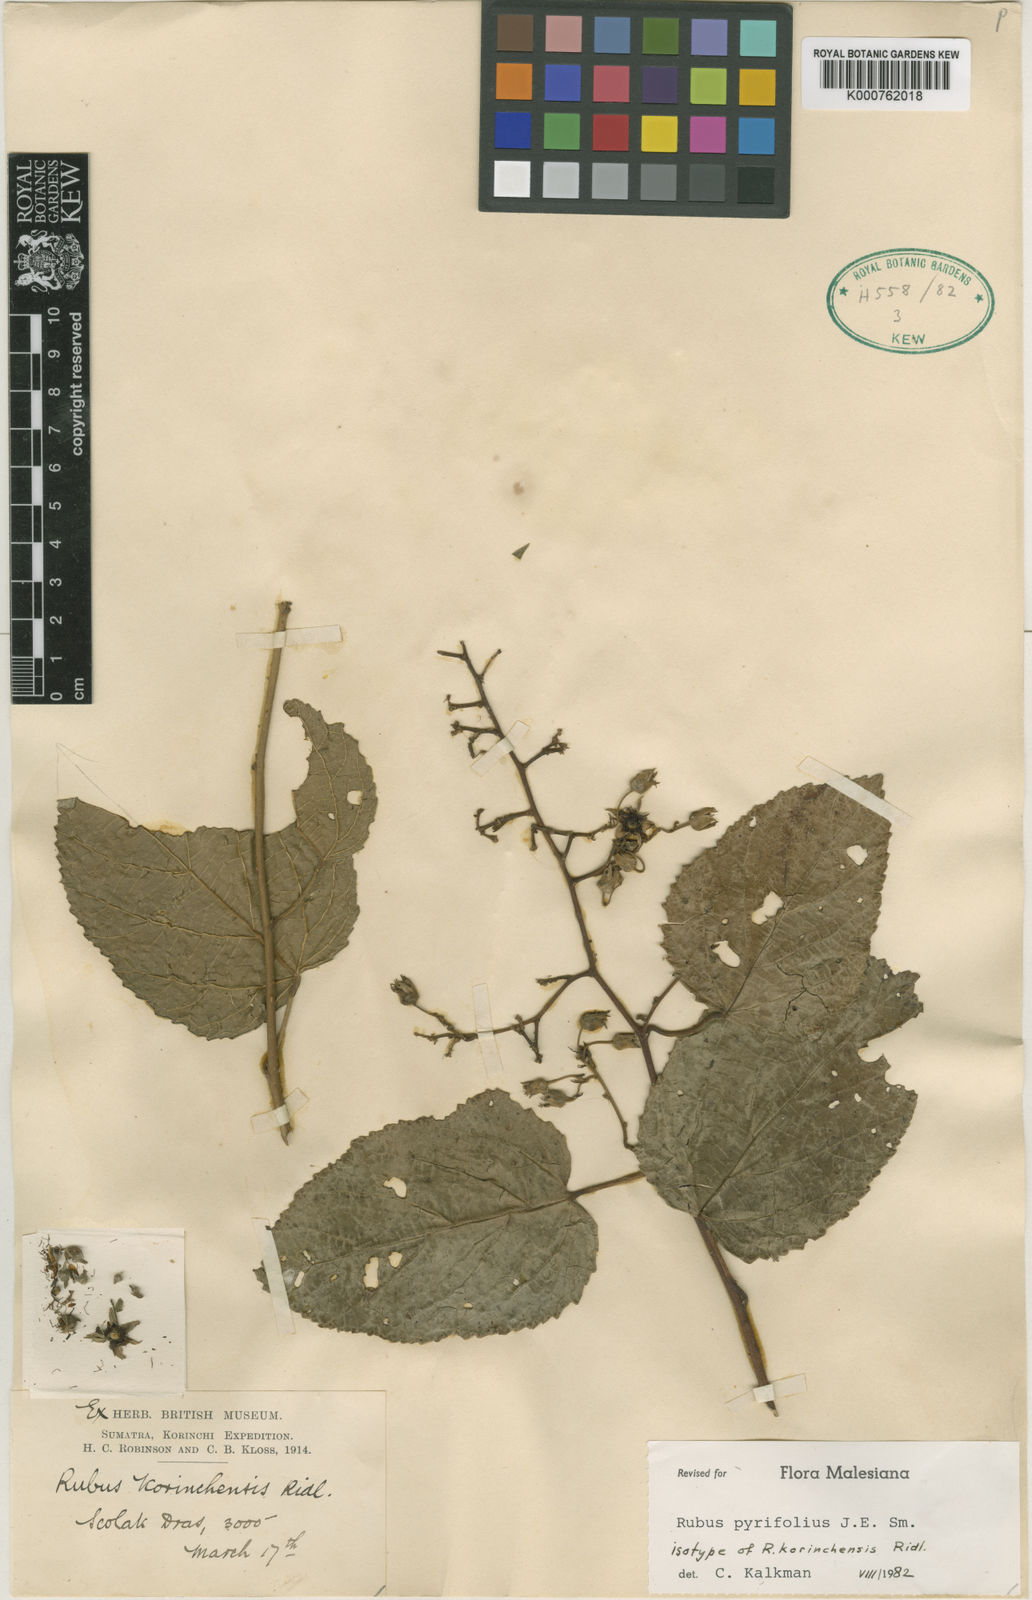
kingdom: Plantae
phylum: Tracheophyta
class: Magnoliopsida
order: Rosales
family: Rosaceae
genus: Rubus
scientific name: Rubus pirifolius
